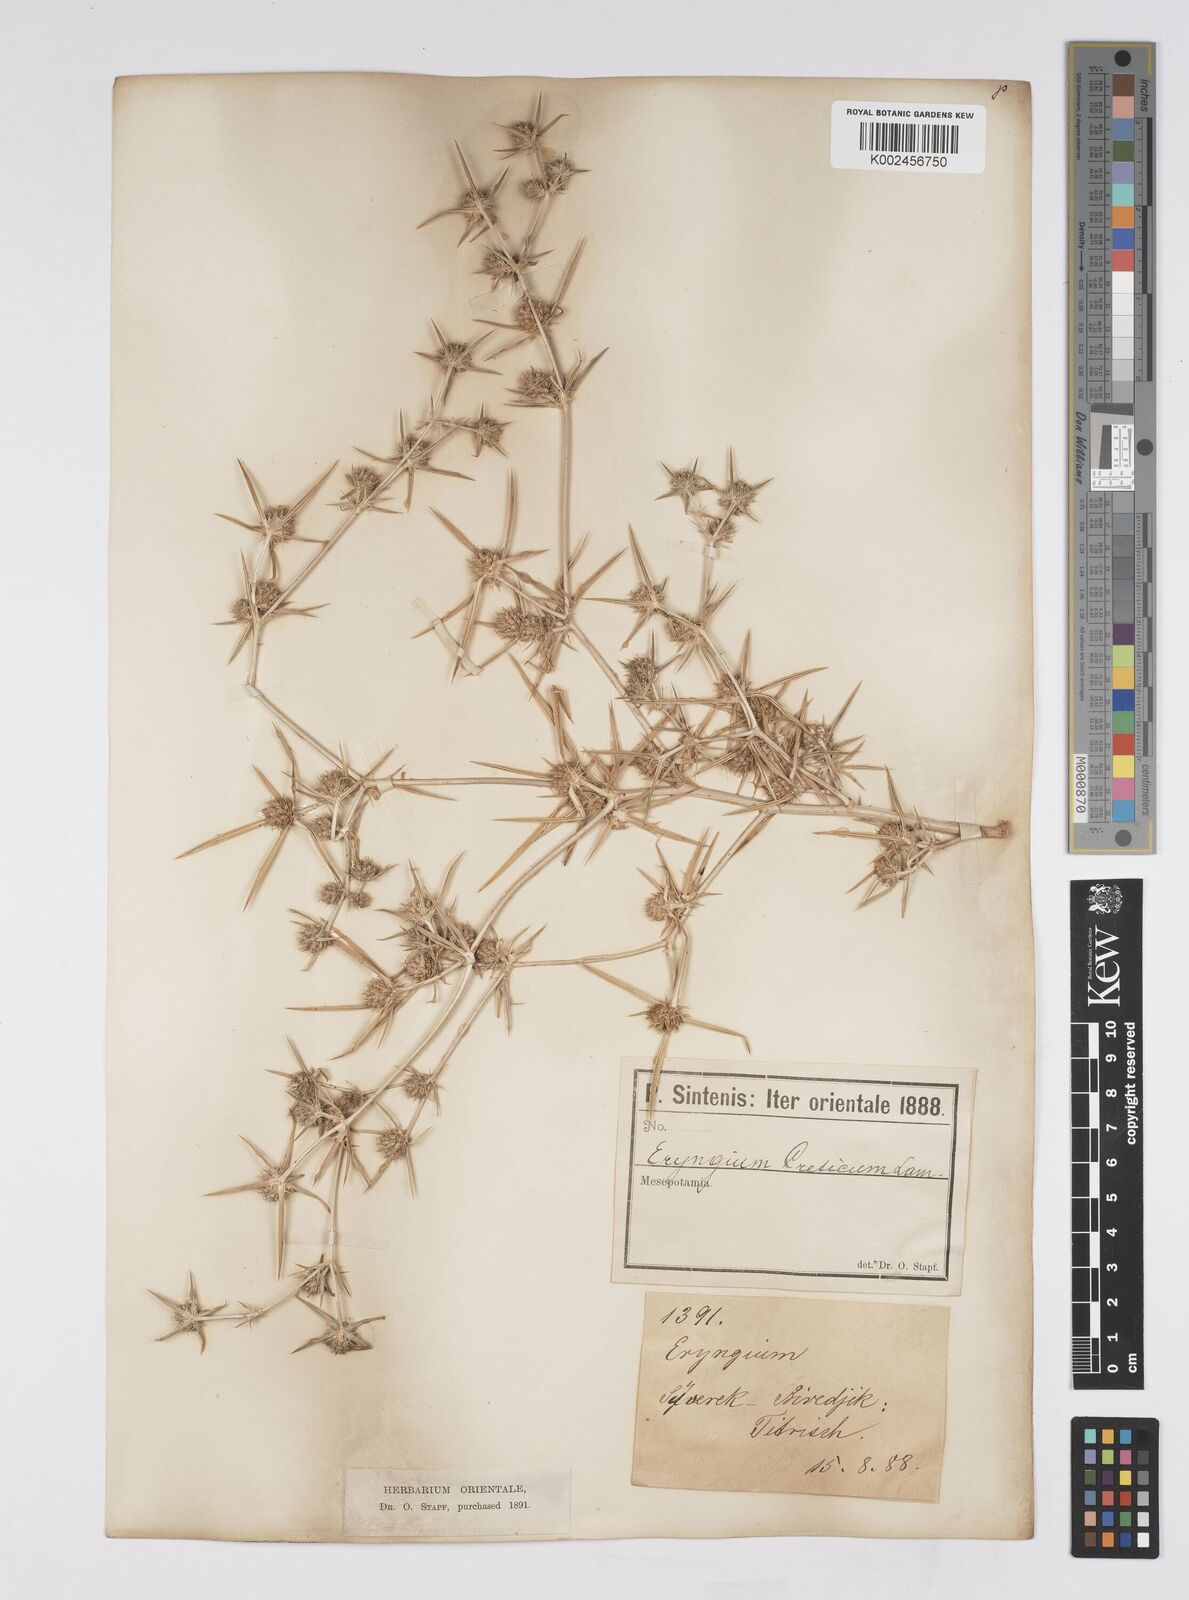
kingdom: Plantae
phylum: Tracheophyta
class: Magnoliopsida
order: Apiales
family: Apiaceae
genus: Eryngium
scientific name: Eryngium creticum
